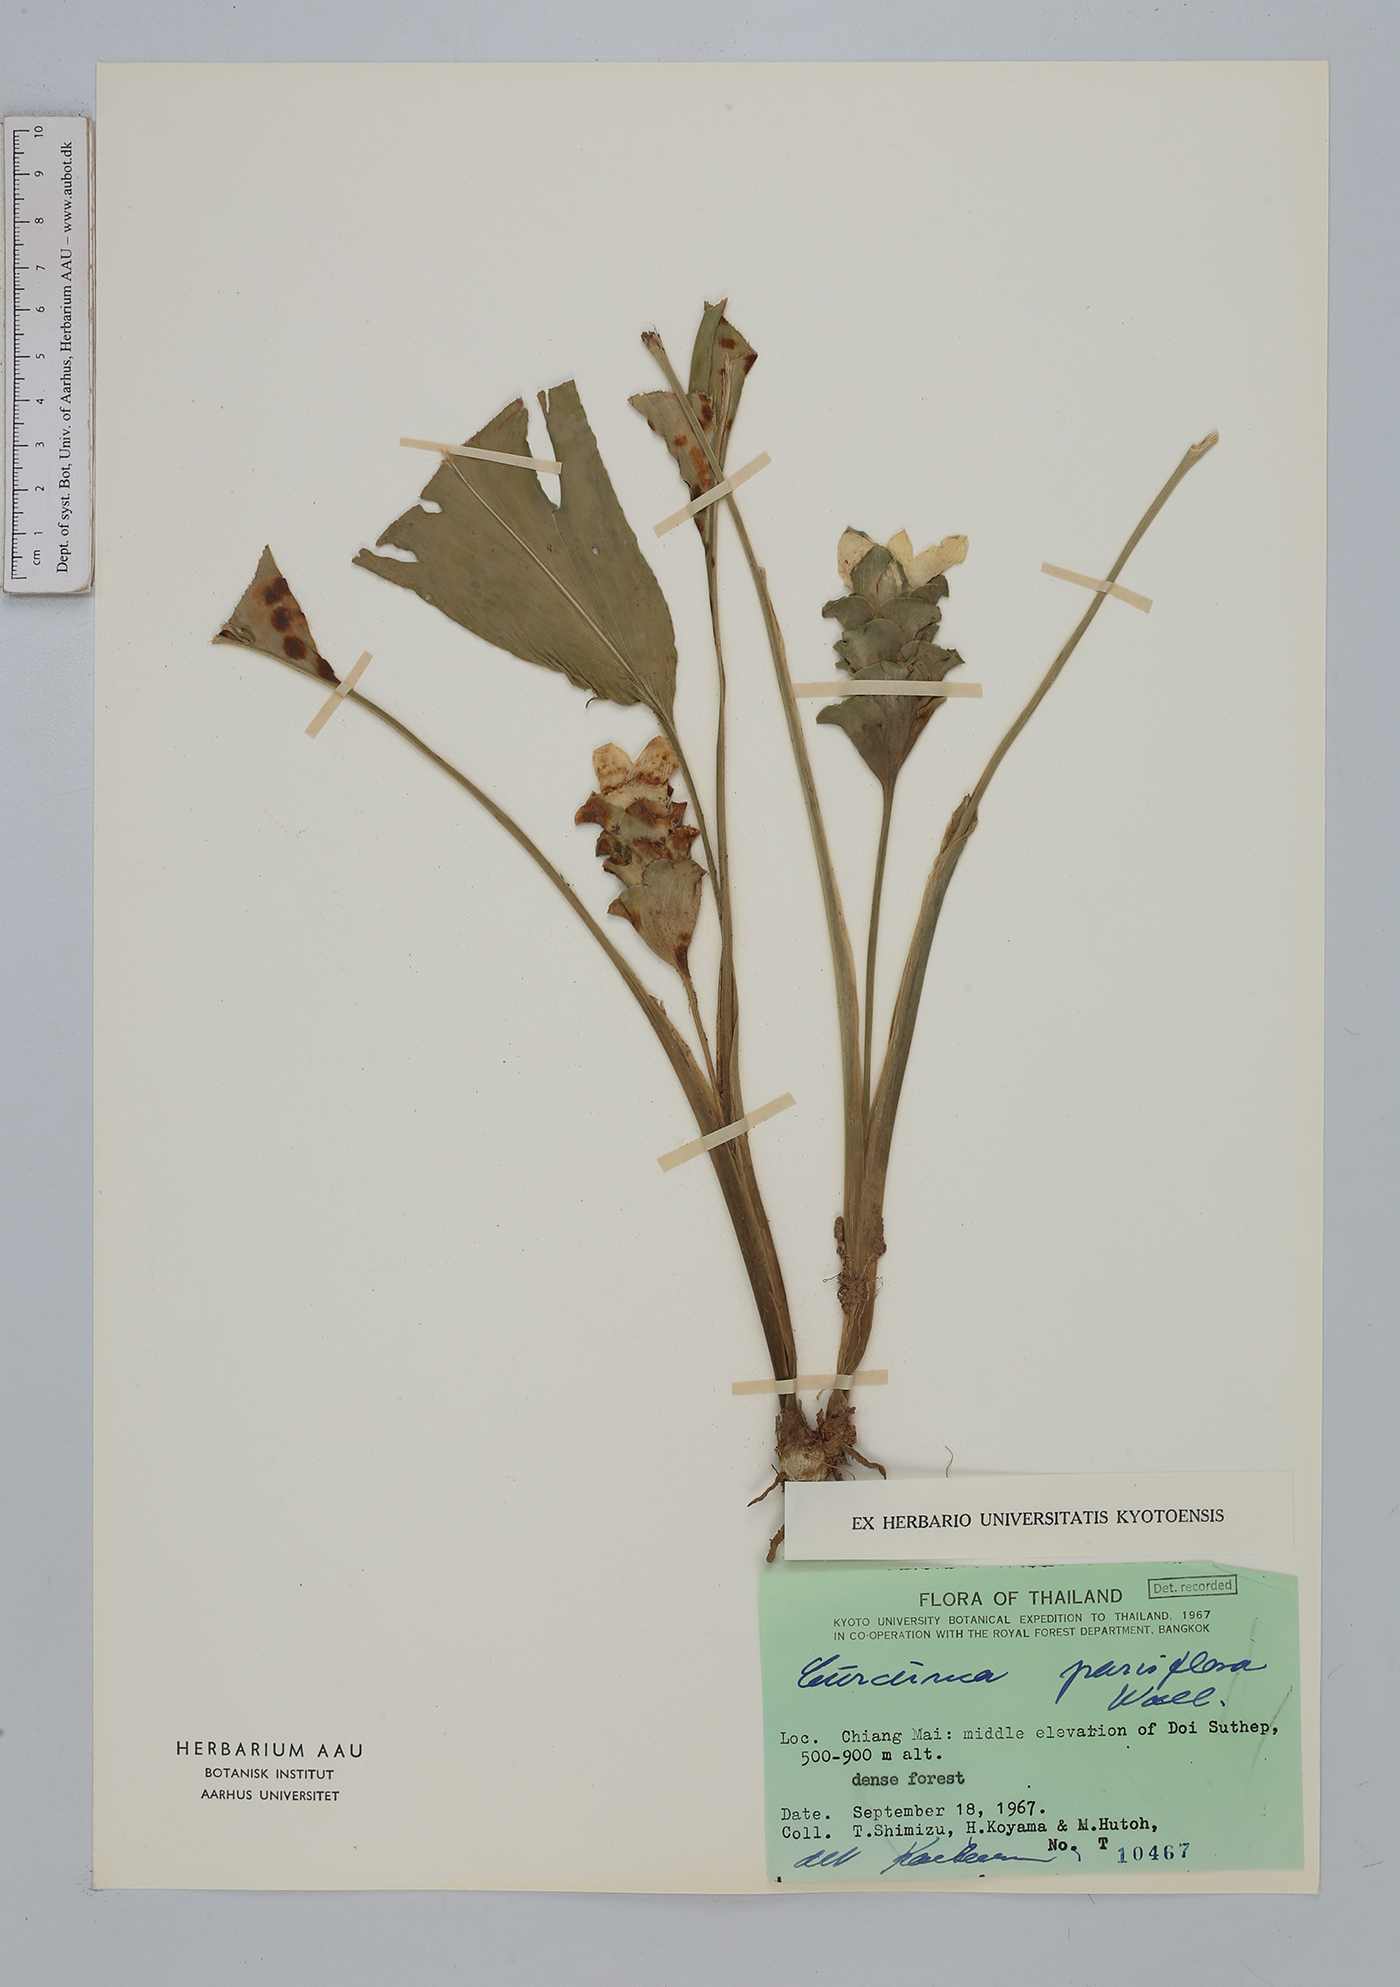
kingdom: Plantae
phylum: Tracheophyta
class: Liliopsida
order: Zingiberales
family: Zingiberaceae
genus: Curcuma
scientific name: Curcuma parviflora
